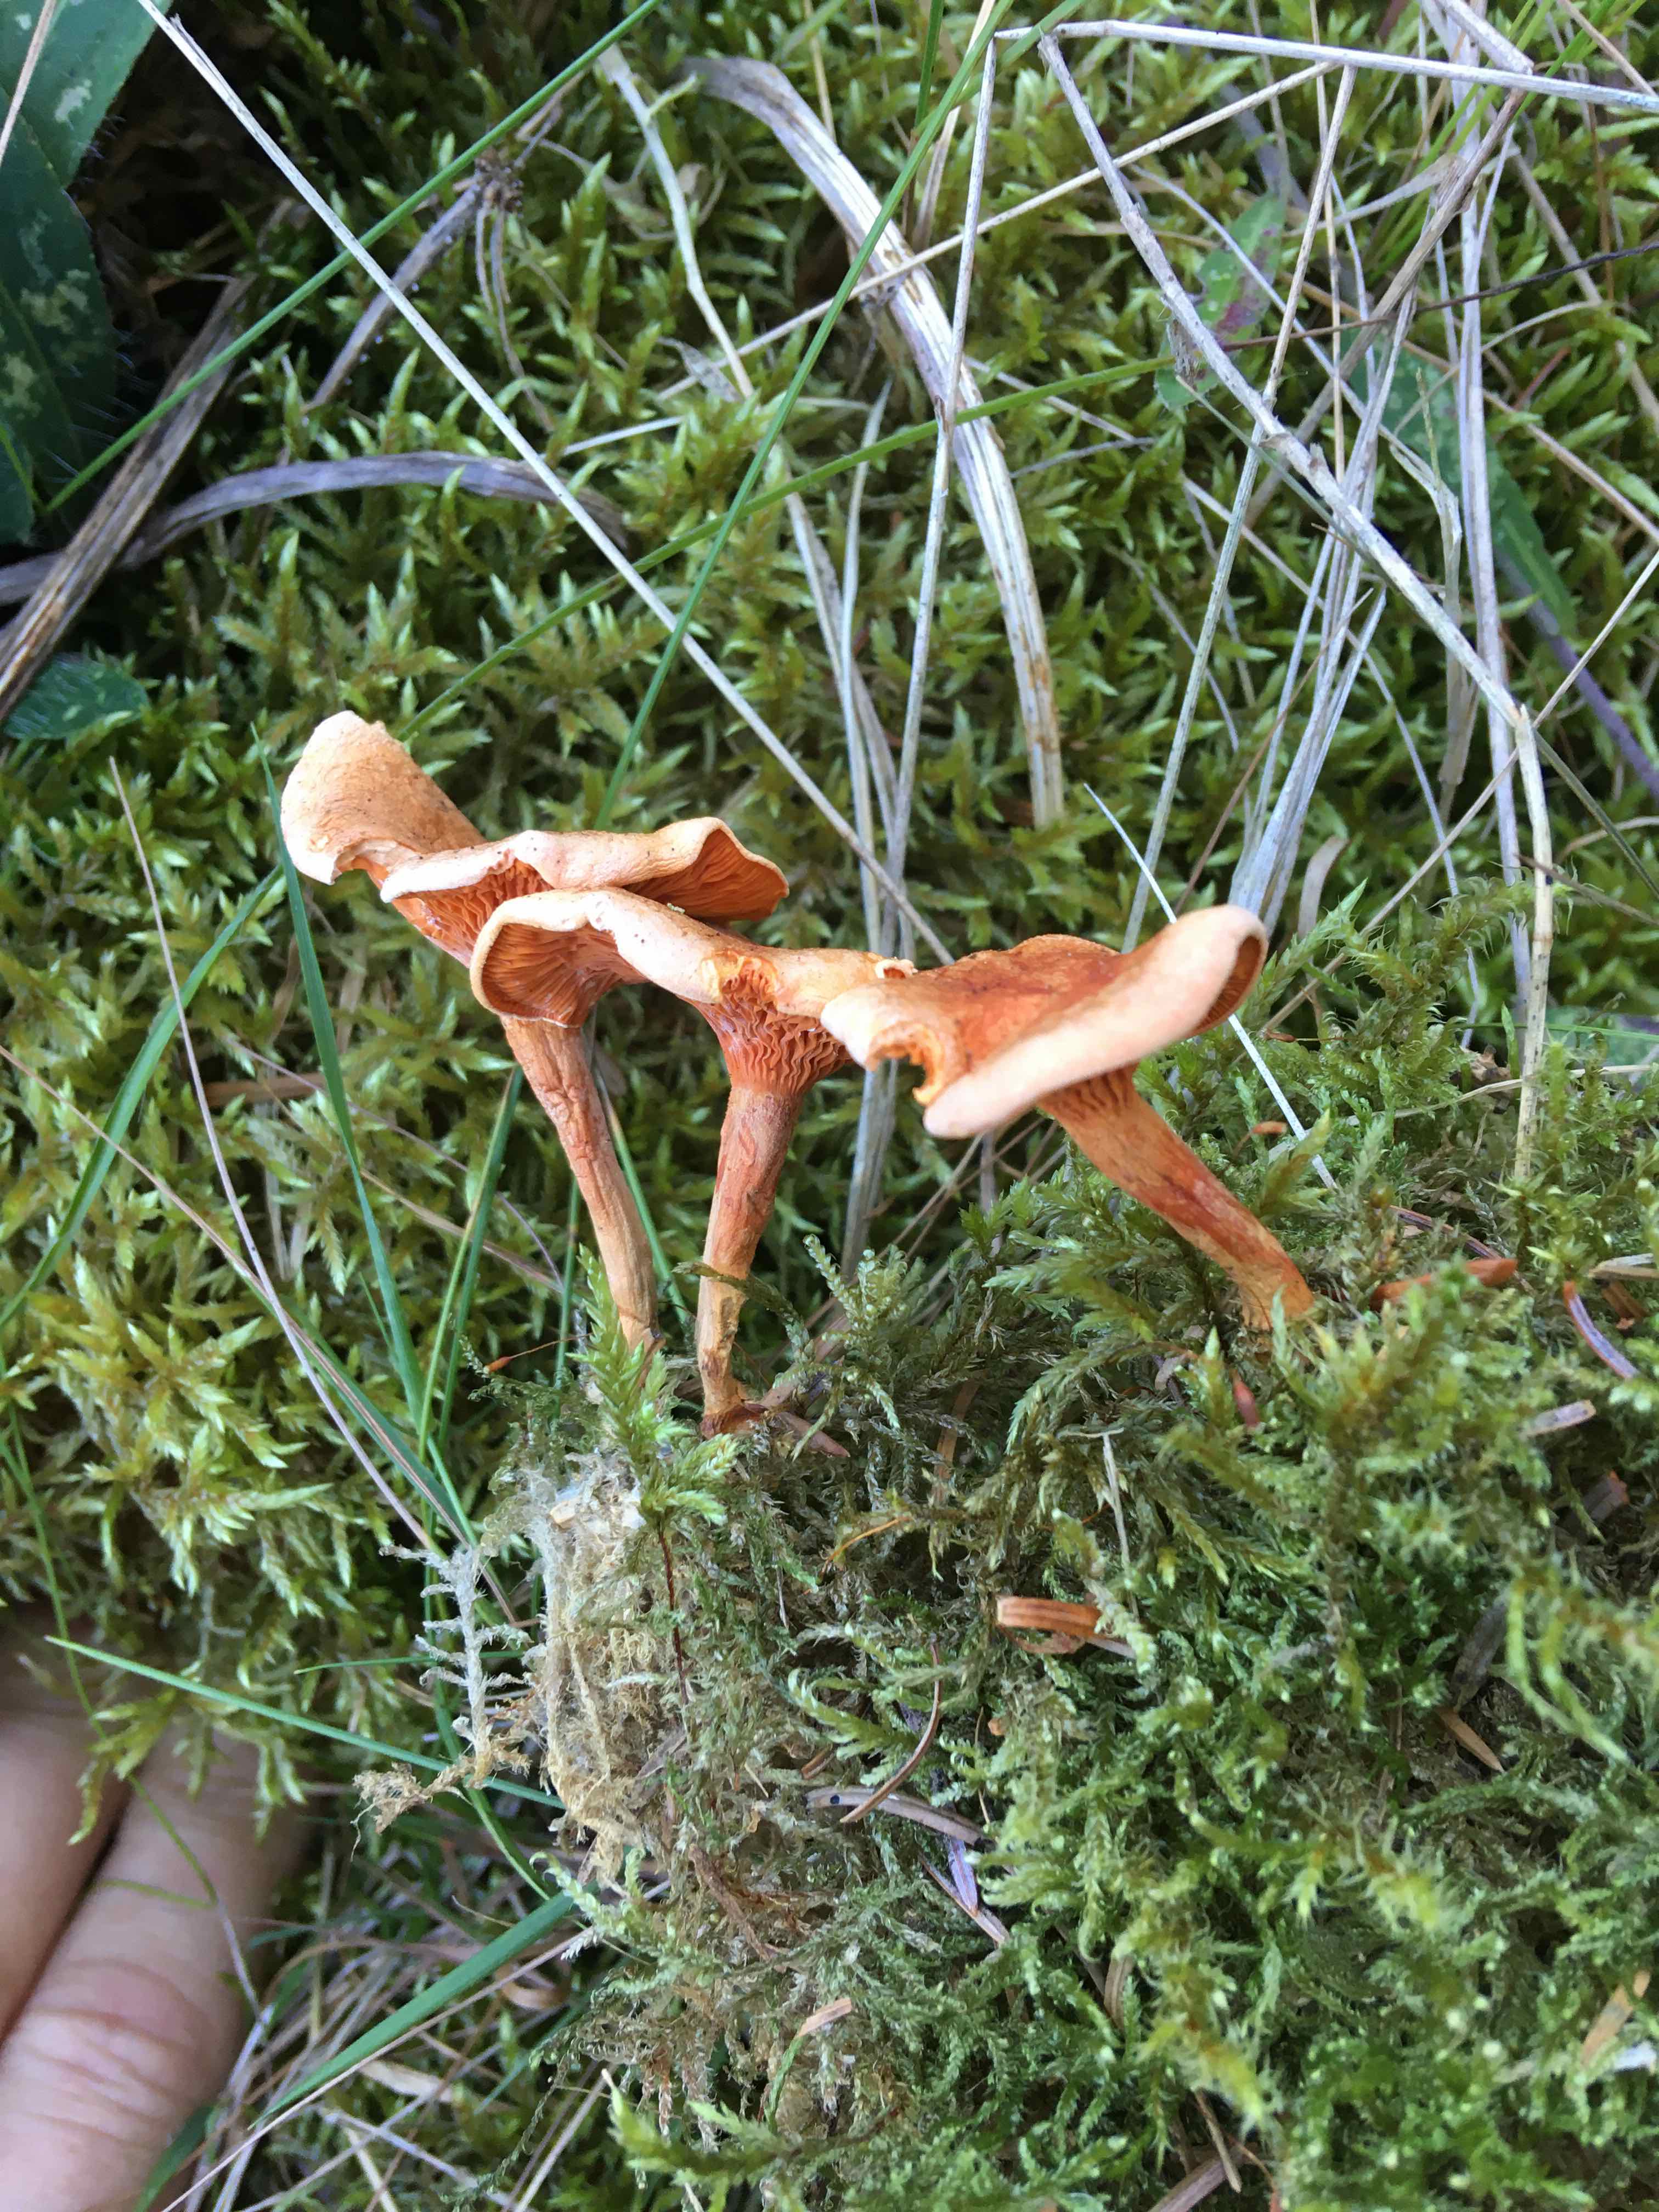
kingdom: Fungi
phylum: Basidiomycota
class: Agaricomycetes
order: Boletales
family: Hygrophoropsidaceae
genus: Hygrophoropsis
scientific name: Hygrophoropsis aurantiaca
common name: almindelig orangekantarel
